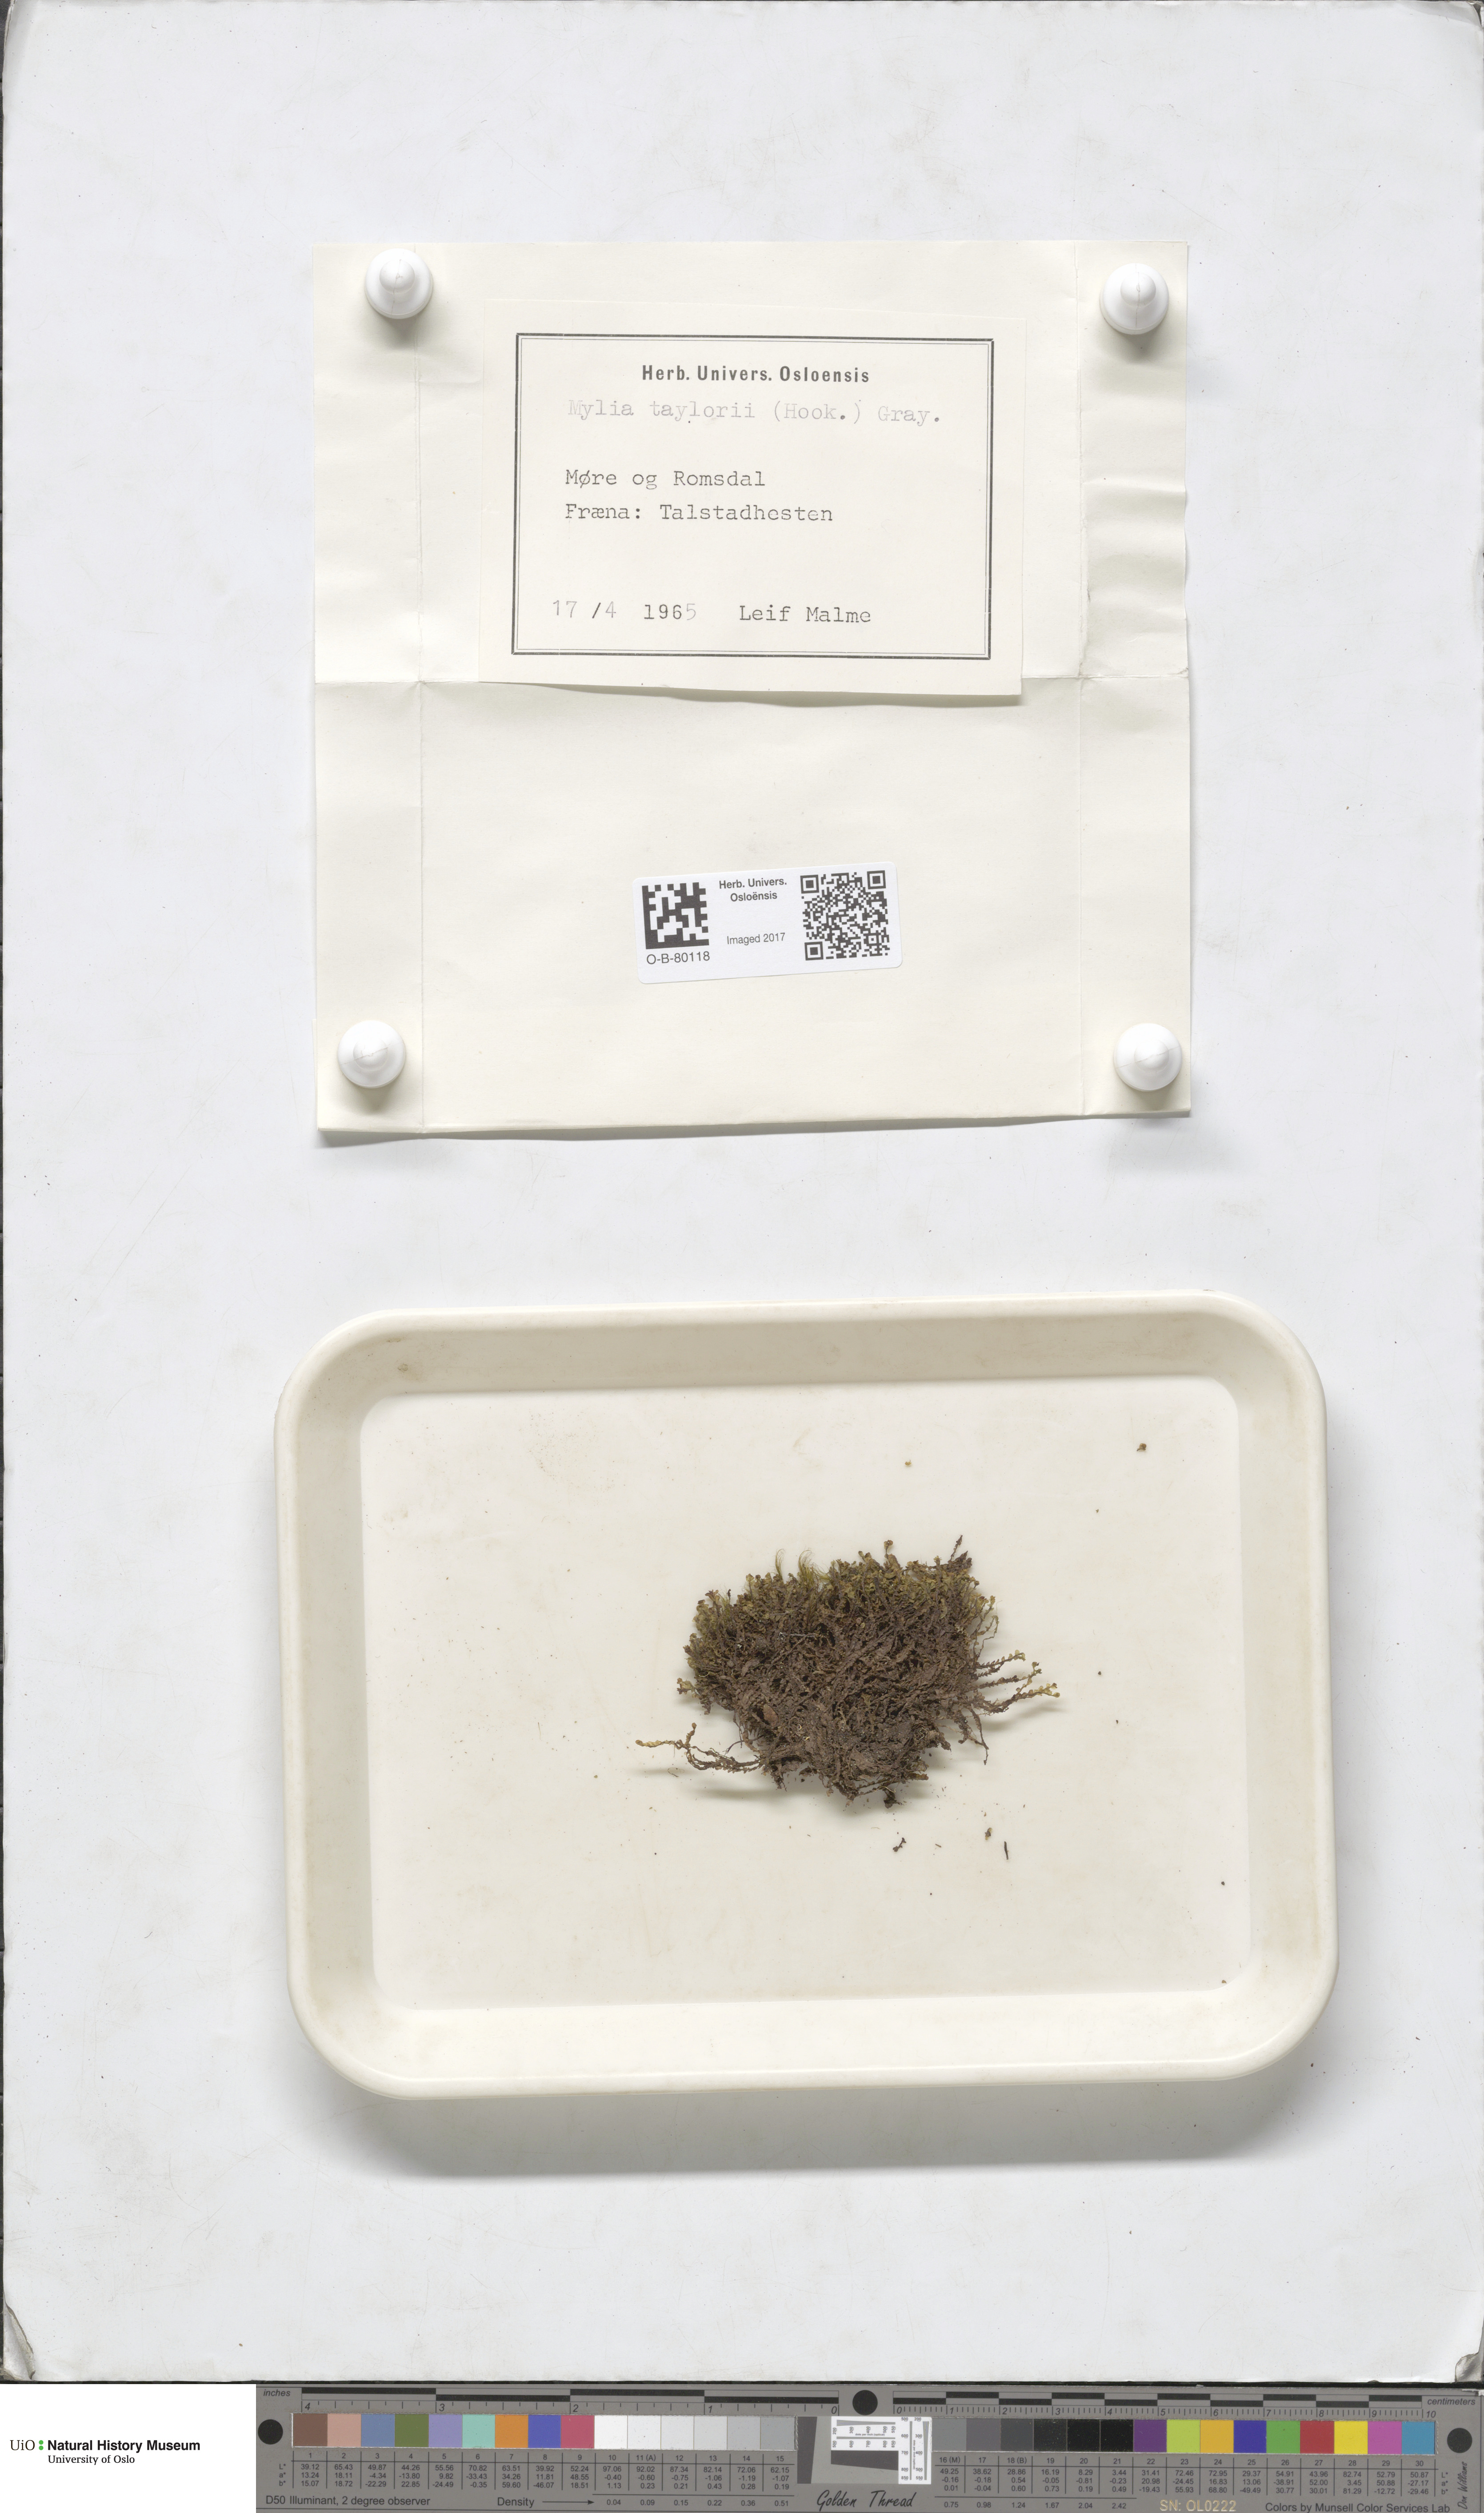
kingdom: Plantae
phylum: Marchantiophyta
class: Jungermanniopsida
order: Jungermanniales
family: Myliaceae
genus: Mylia
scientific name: Mylia taylorii
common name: Taylor s flapwort
